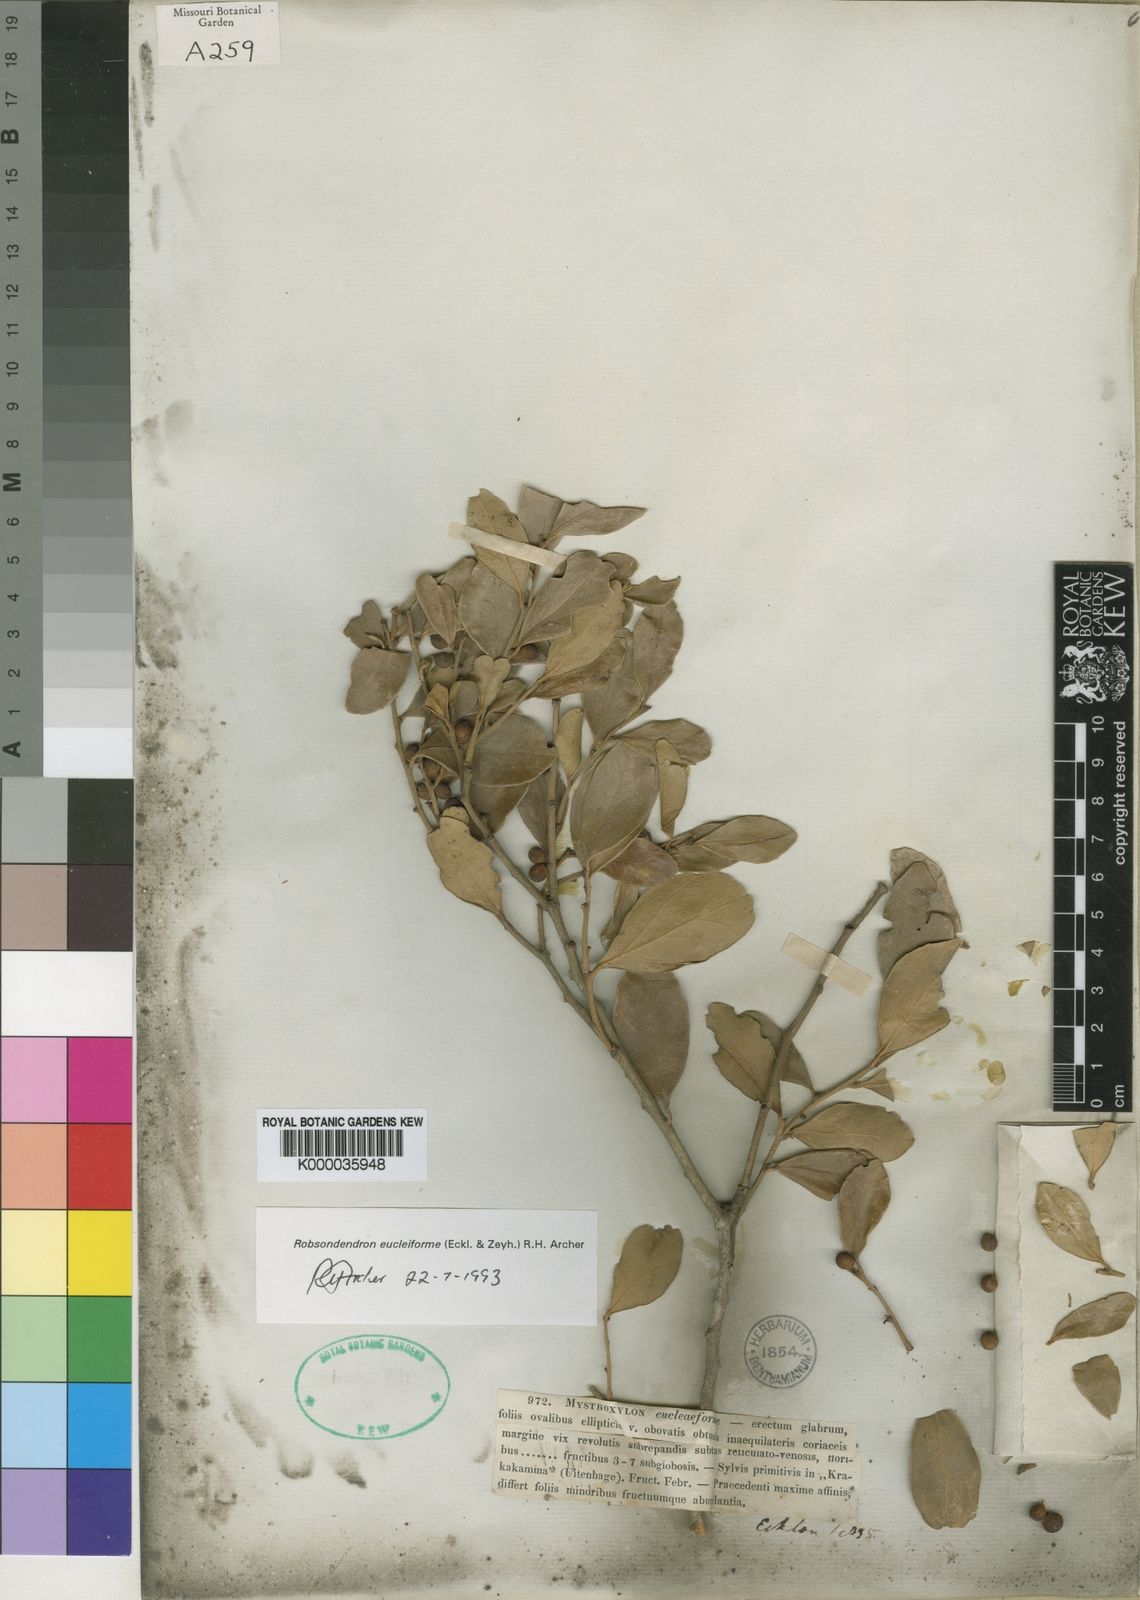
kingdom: Plantae
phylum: Tracheophyta
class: Magnoliopsida
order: Celastrales
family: Celastraceae
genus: Robsonodendron
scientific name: Robsonodendron eucleiforme
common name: Mock silky-bark
